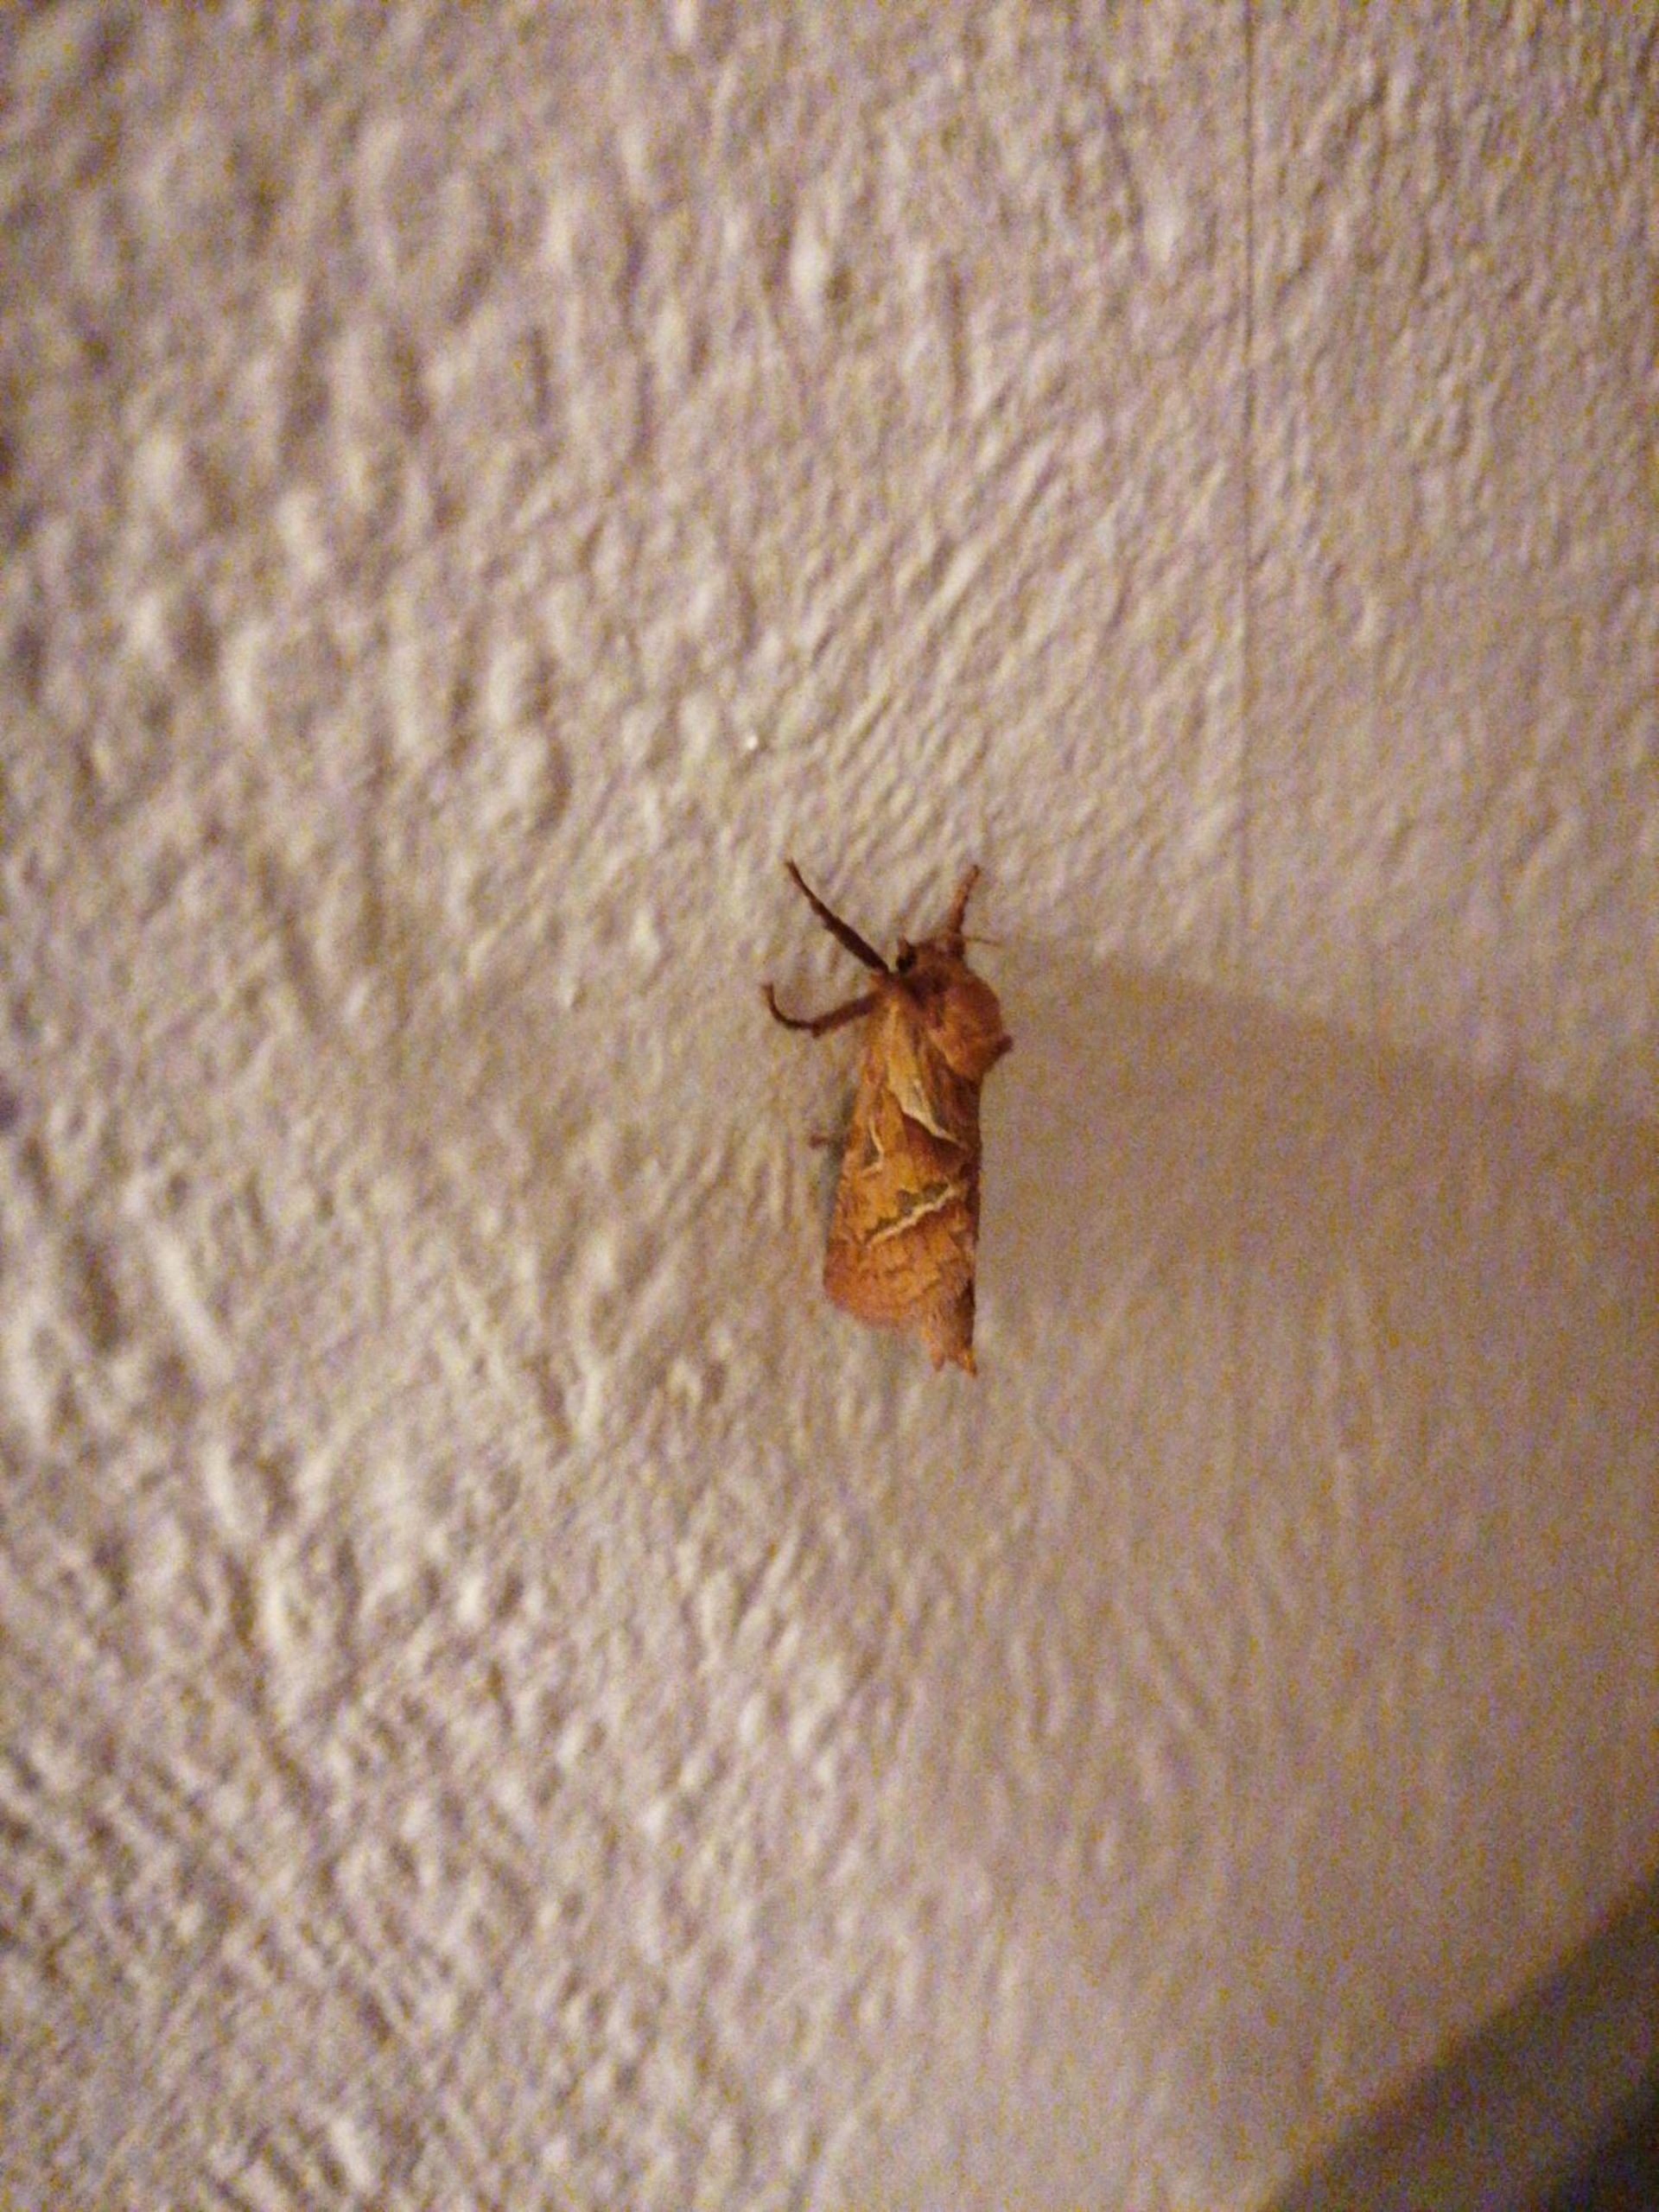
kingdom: Animalia
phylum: Arthropoda
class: Insecta
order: Lepidoptera
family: Hepialidae
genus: Triodia
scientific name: Triodia sylvina
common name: Skræpperodæder
